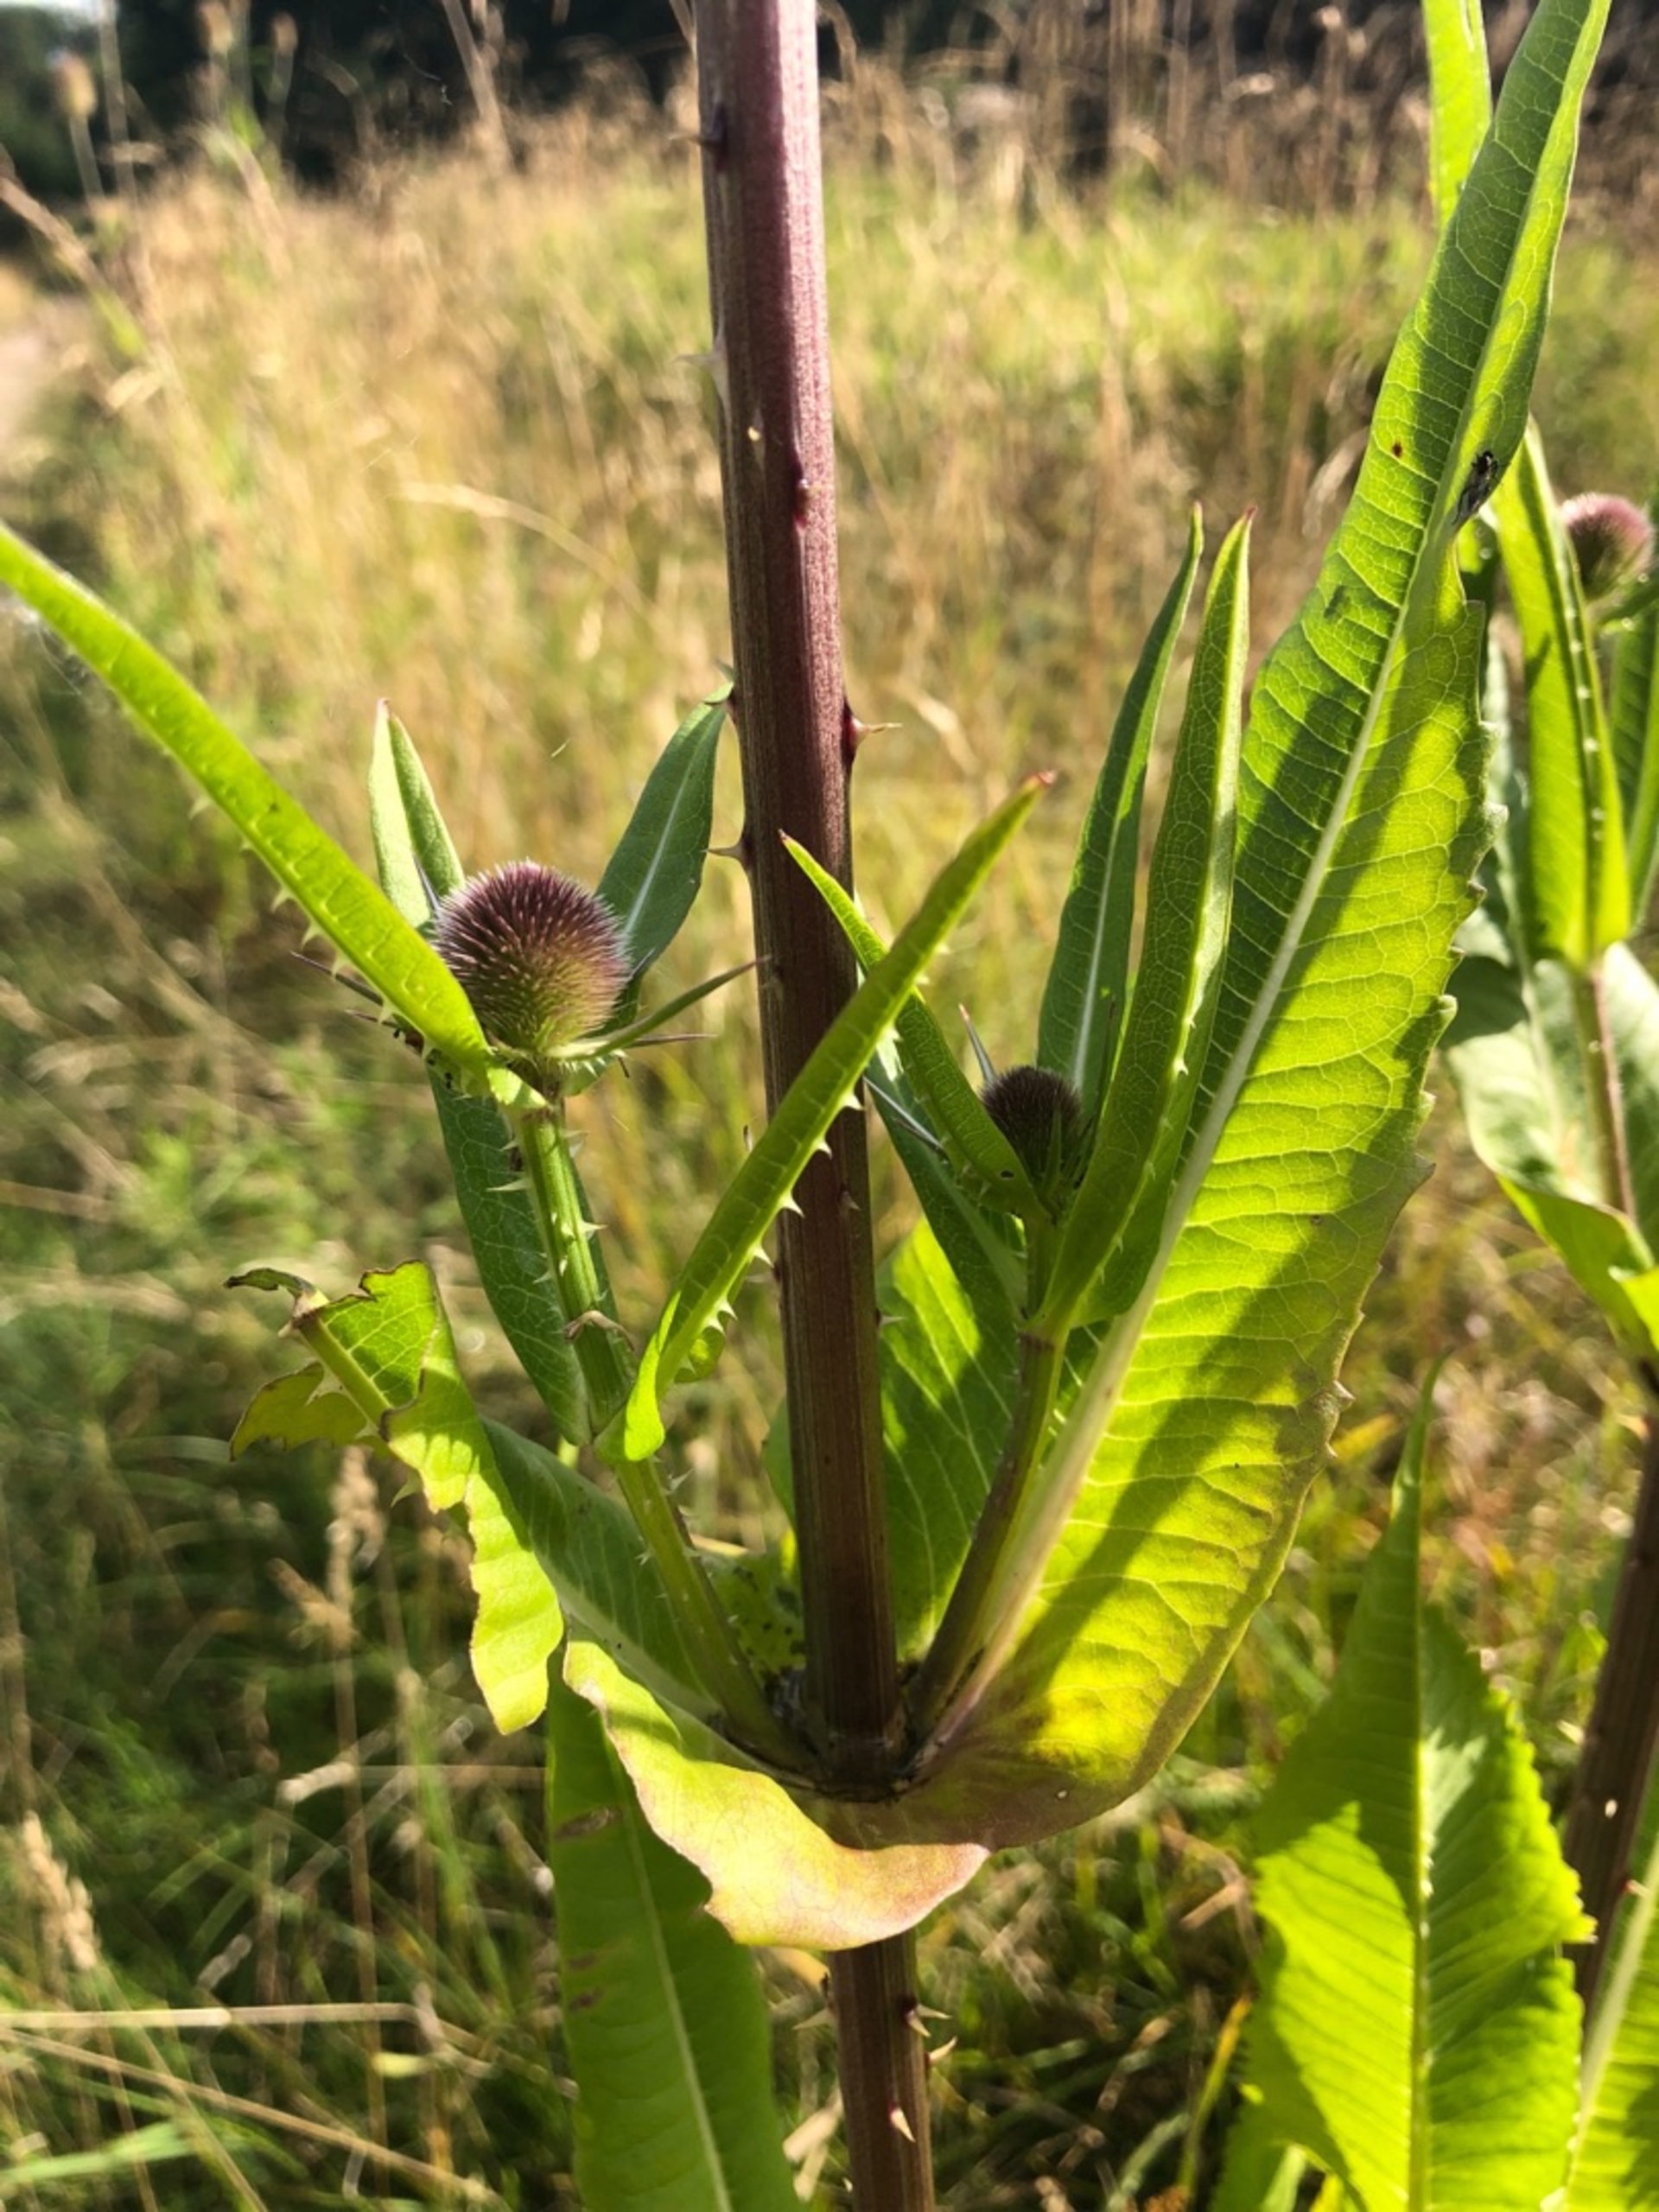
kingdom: Plantae
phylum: Tracheophyta
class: Magnoliopsida
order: Dipsacales
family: Caprifoliaceae
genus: Dipsacus
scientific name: Dipsacus fullonum
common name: Gærde-kartebolle
